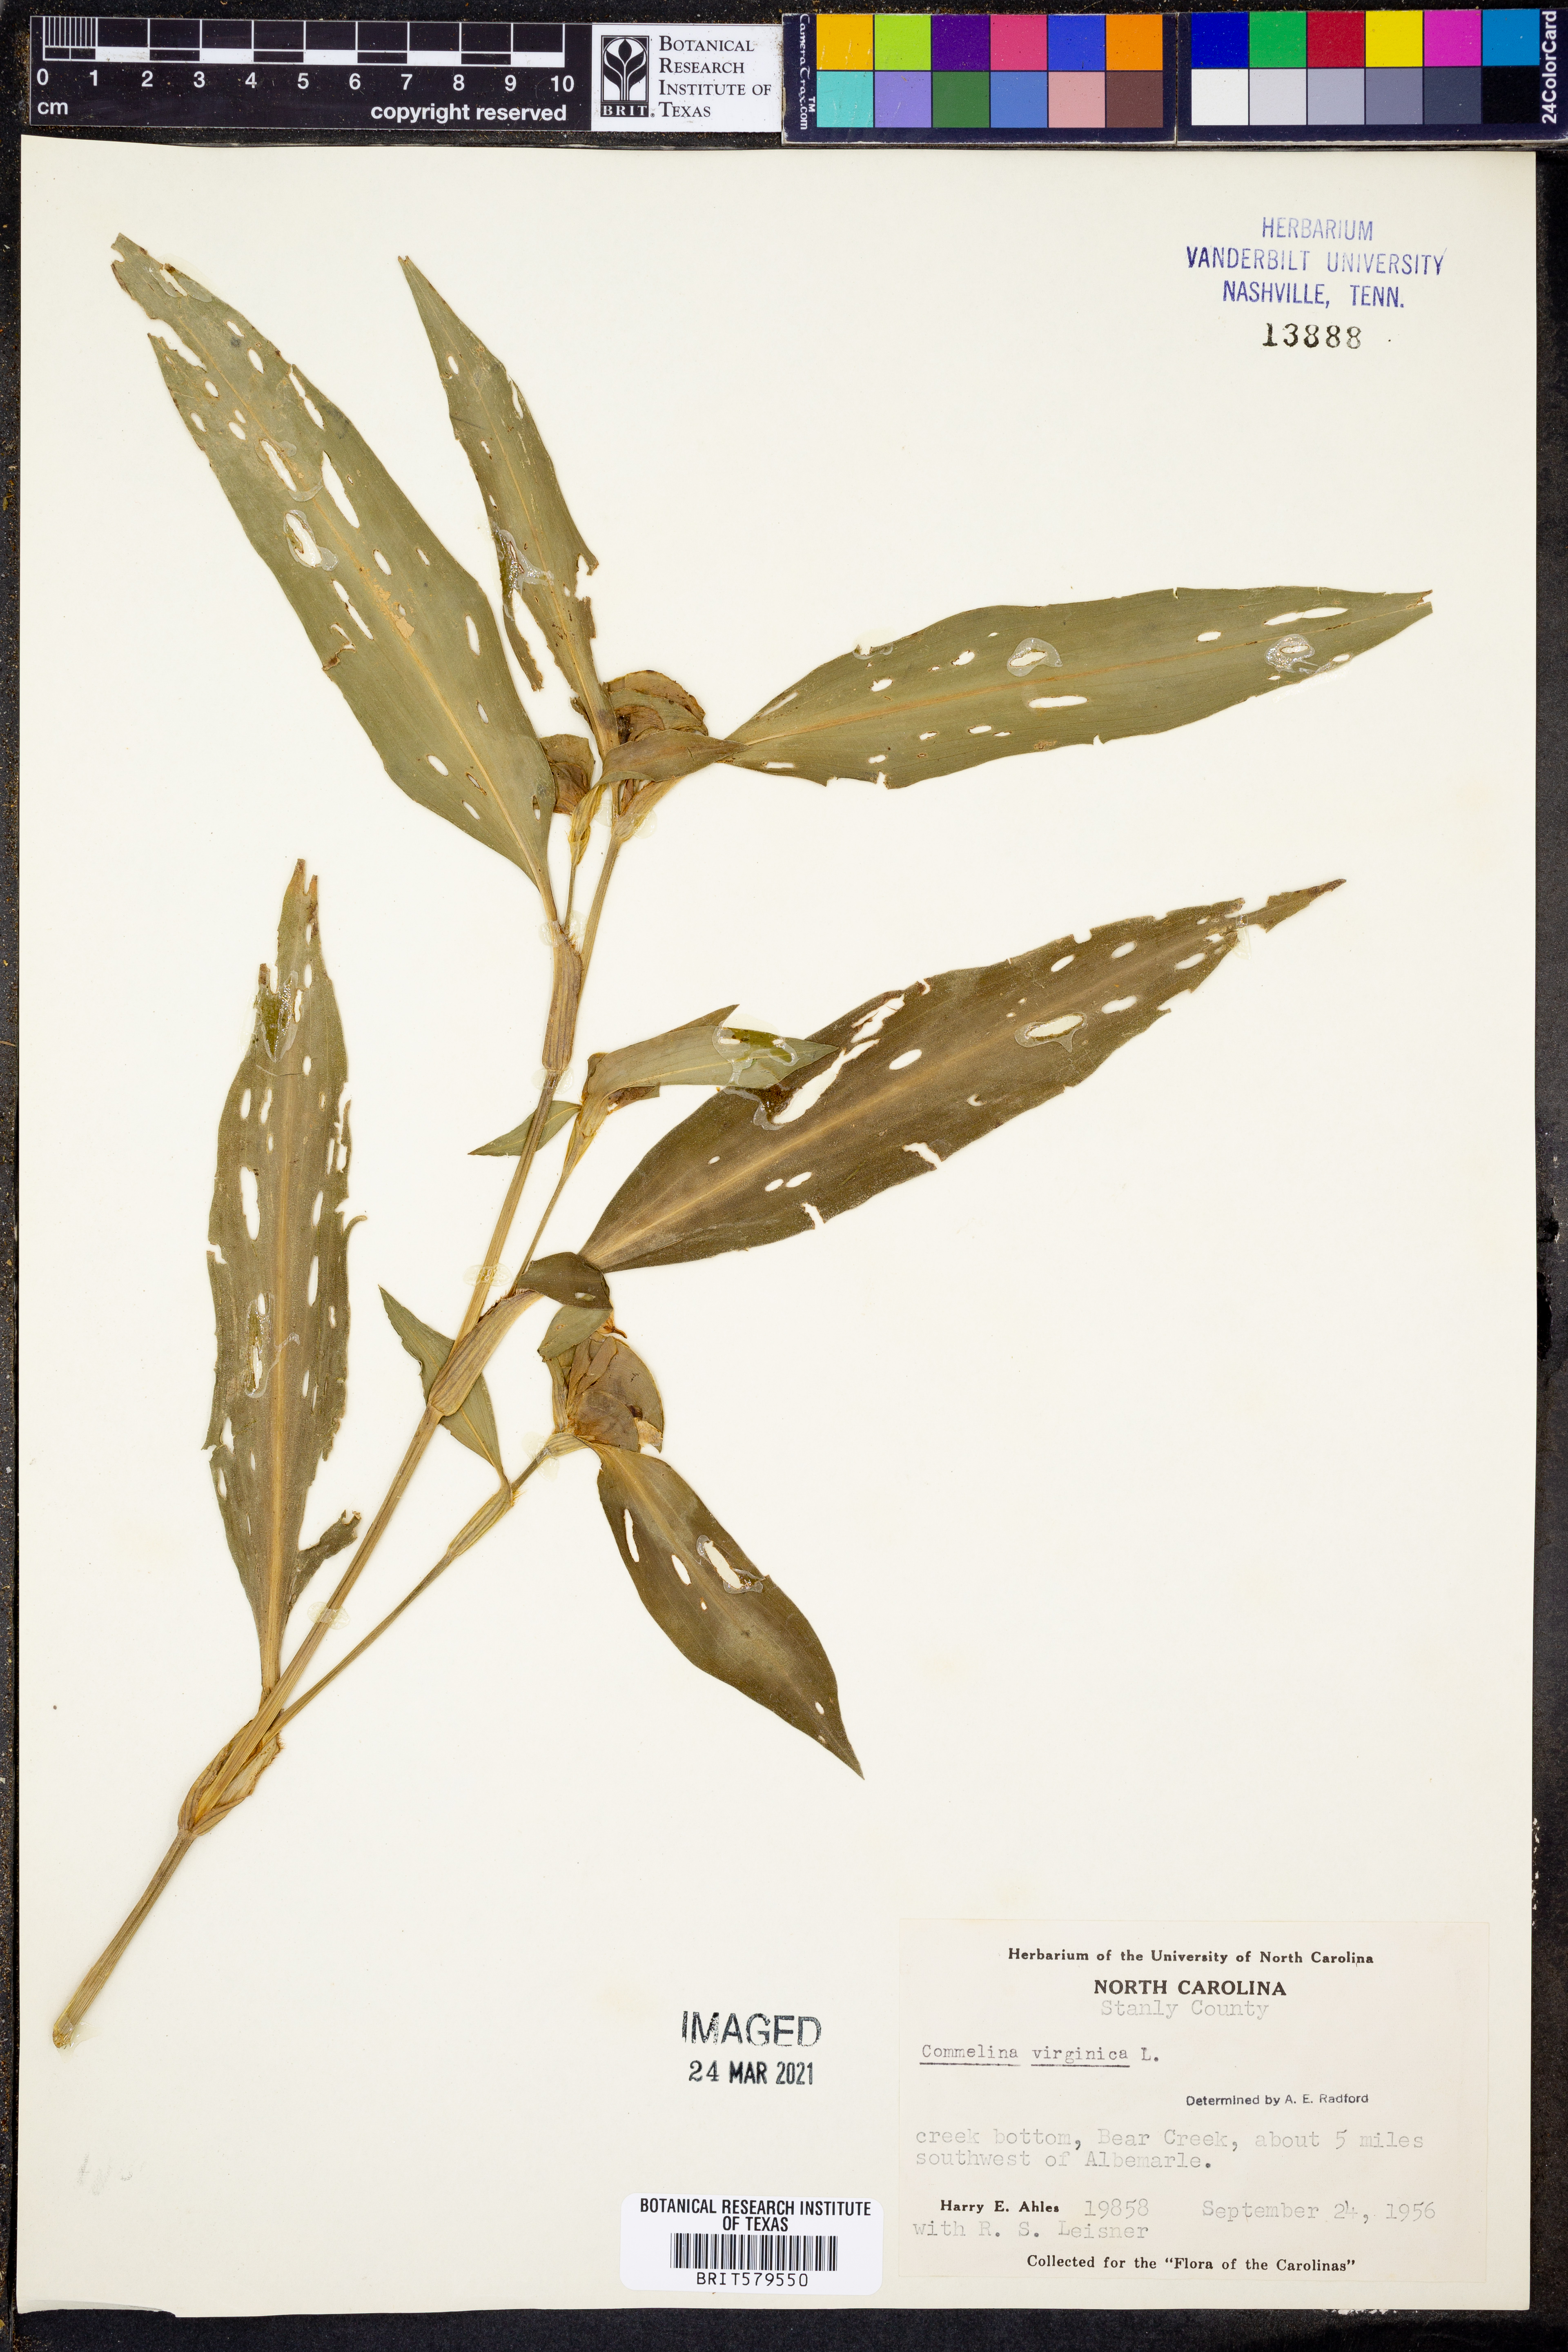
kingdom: Plantae
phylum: Tracheophyta
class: Liliopsida
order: Commelinales
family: Commelinaceae
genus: Commelina
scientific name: Commelina virginica
